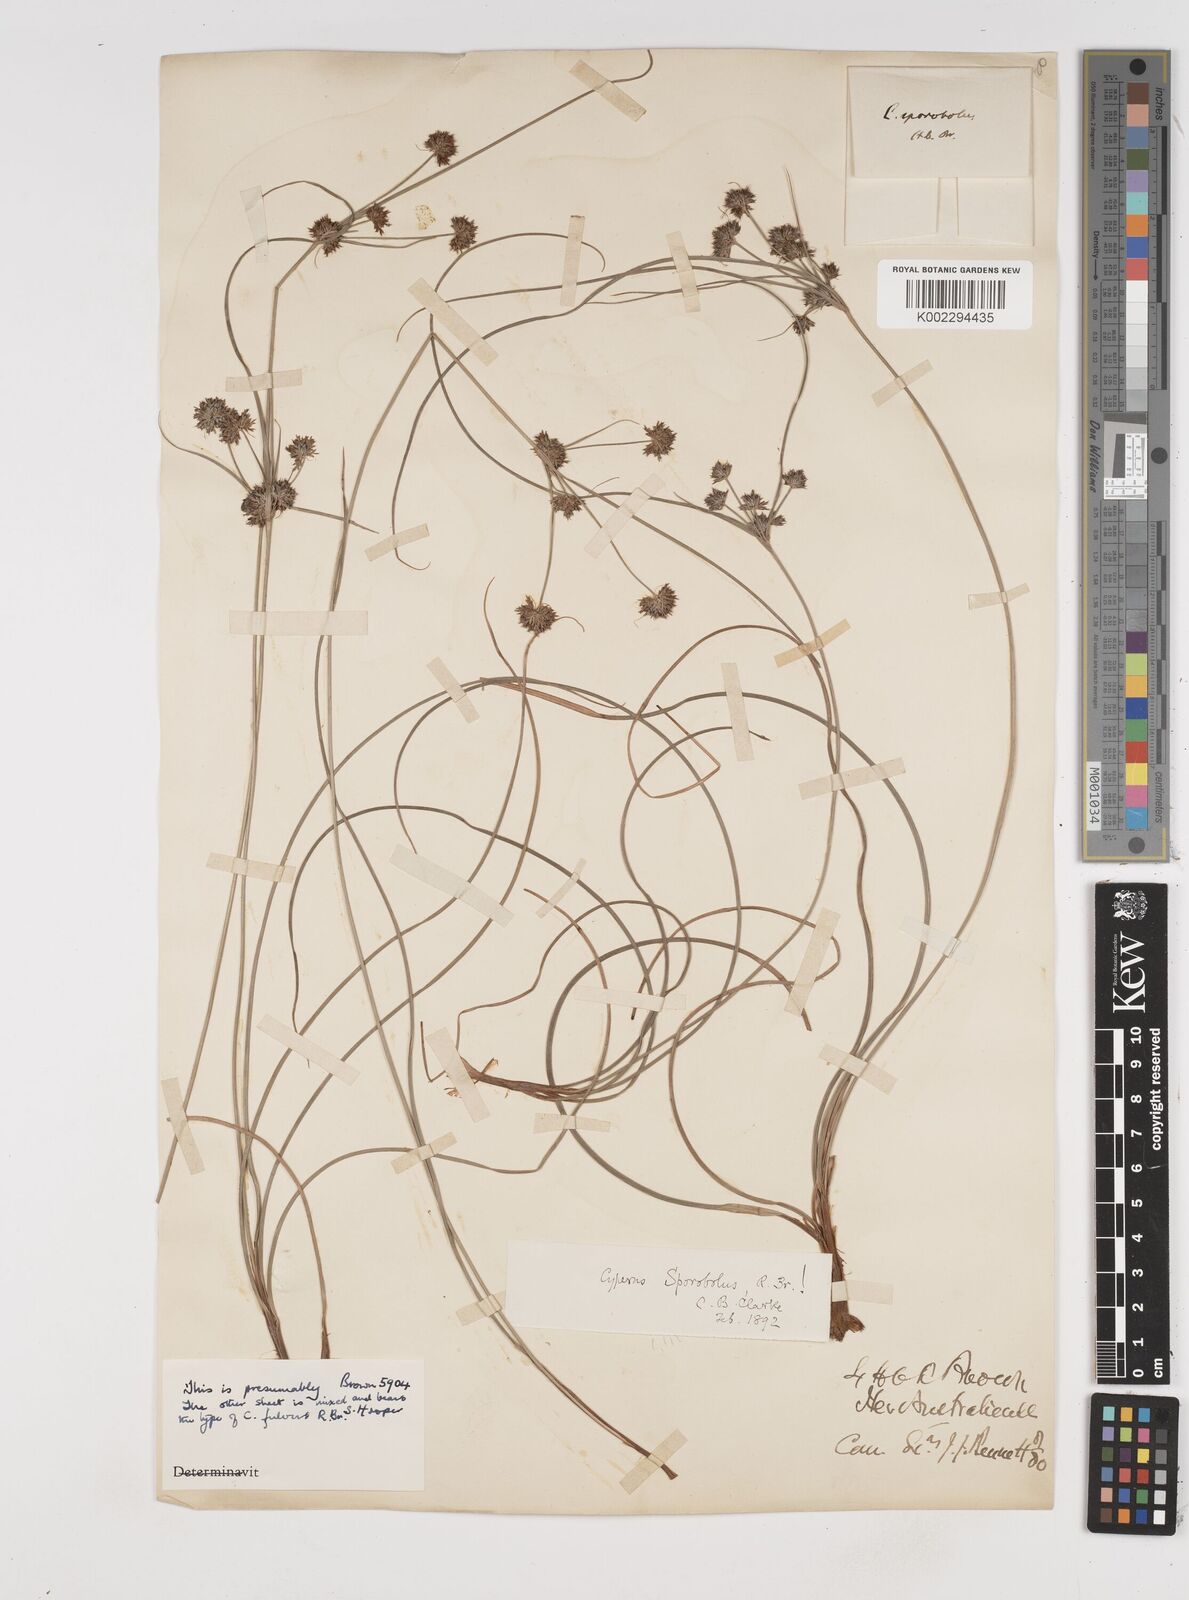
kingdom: Plantae
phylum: Tracheophyta
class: Liliopsida
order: Poales
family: Cyperaceae
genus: Cyperus
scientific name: Cyperus sporobolus
